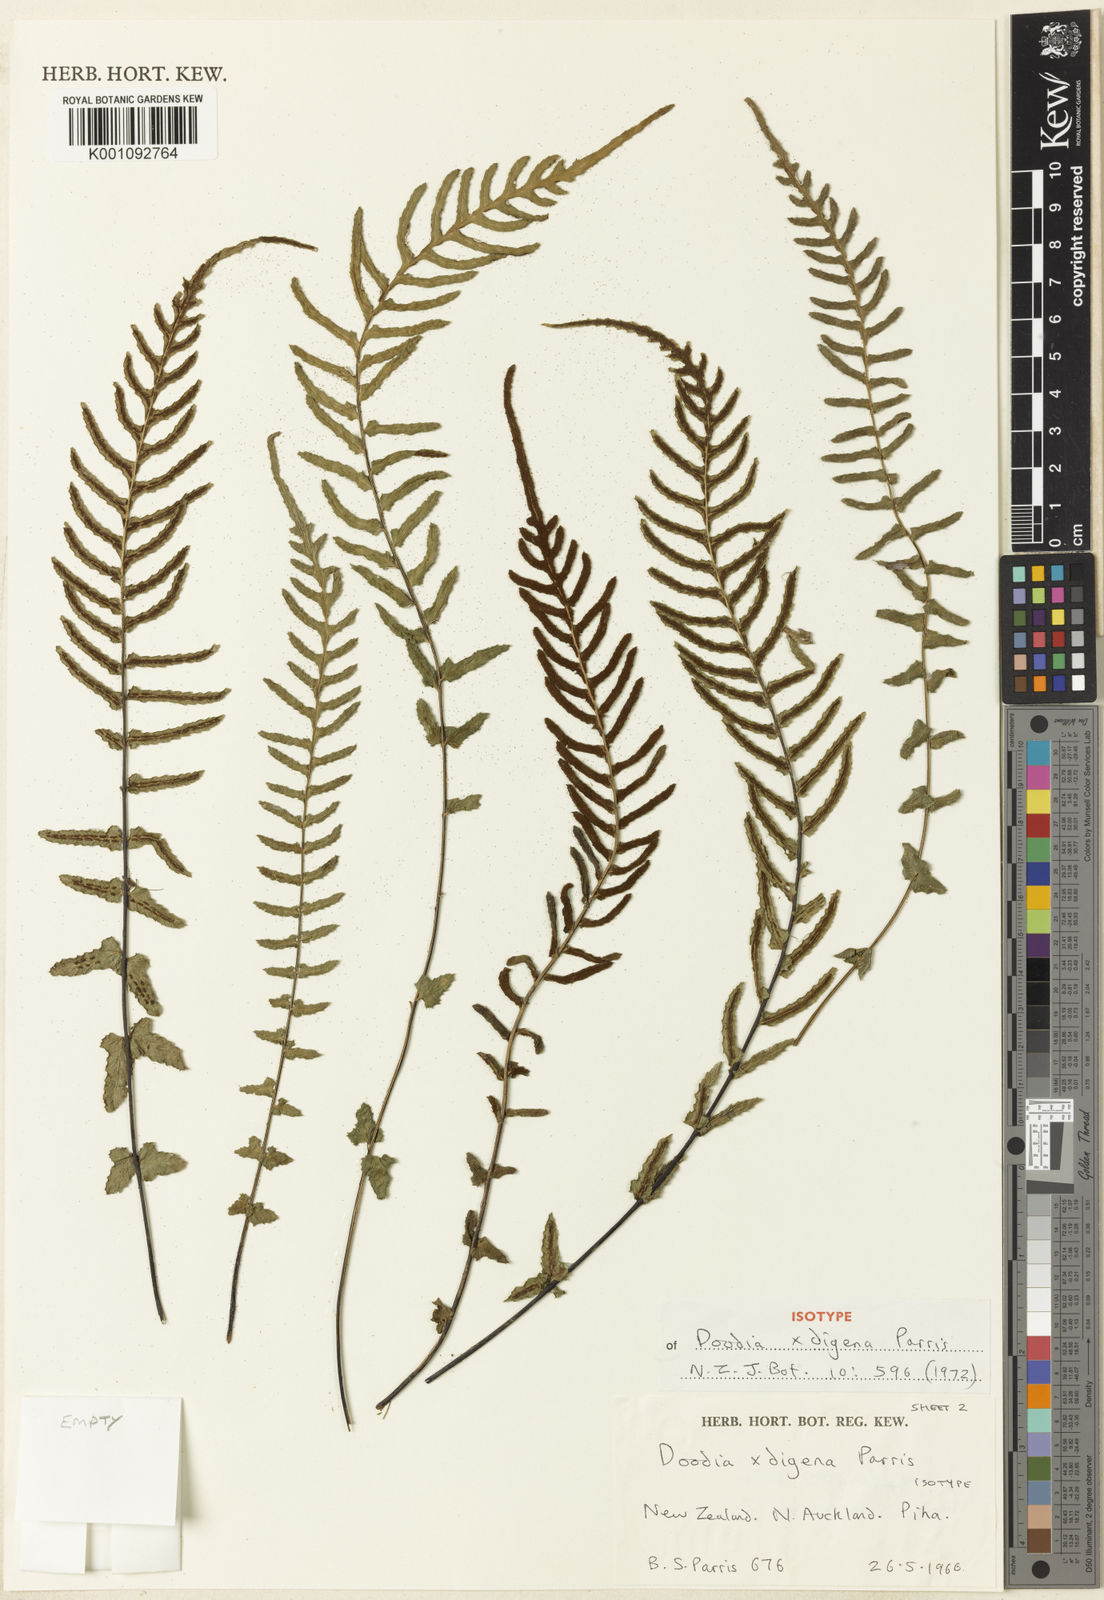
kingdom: Plantae
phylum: Tracheophyta
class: Polypodiopsida
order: Polypodiales
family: Blechnaceae
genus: Doodia
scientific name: Doodia digena
